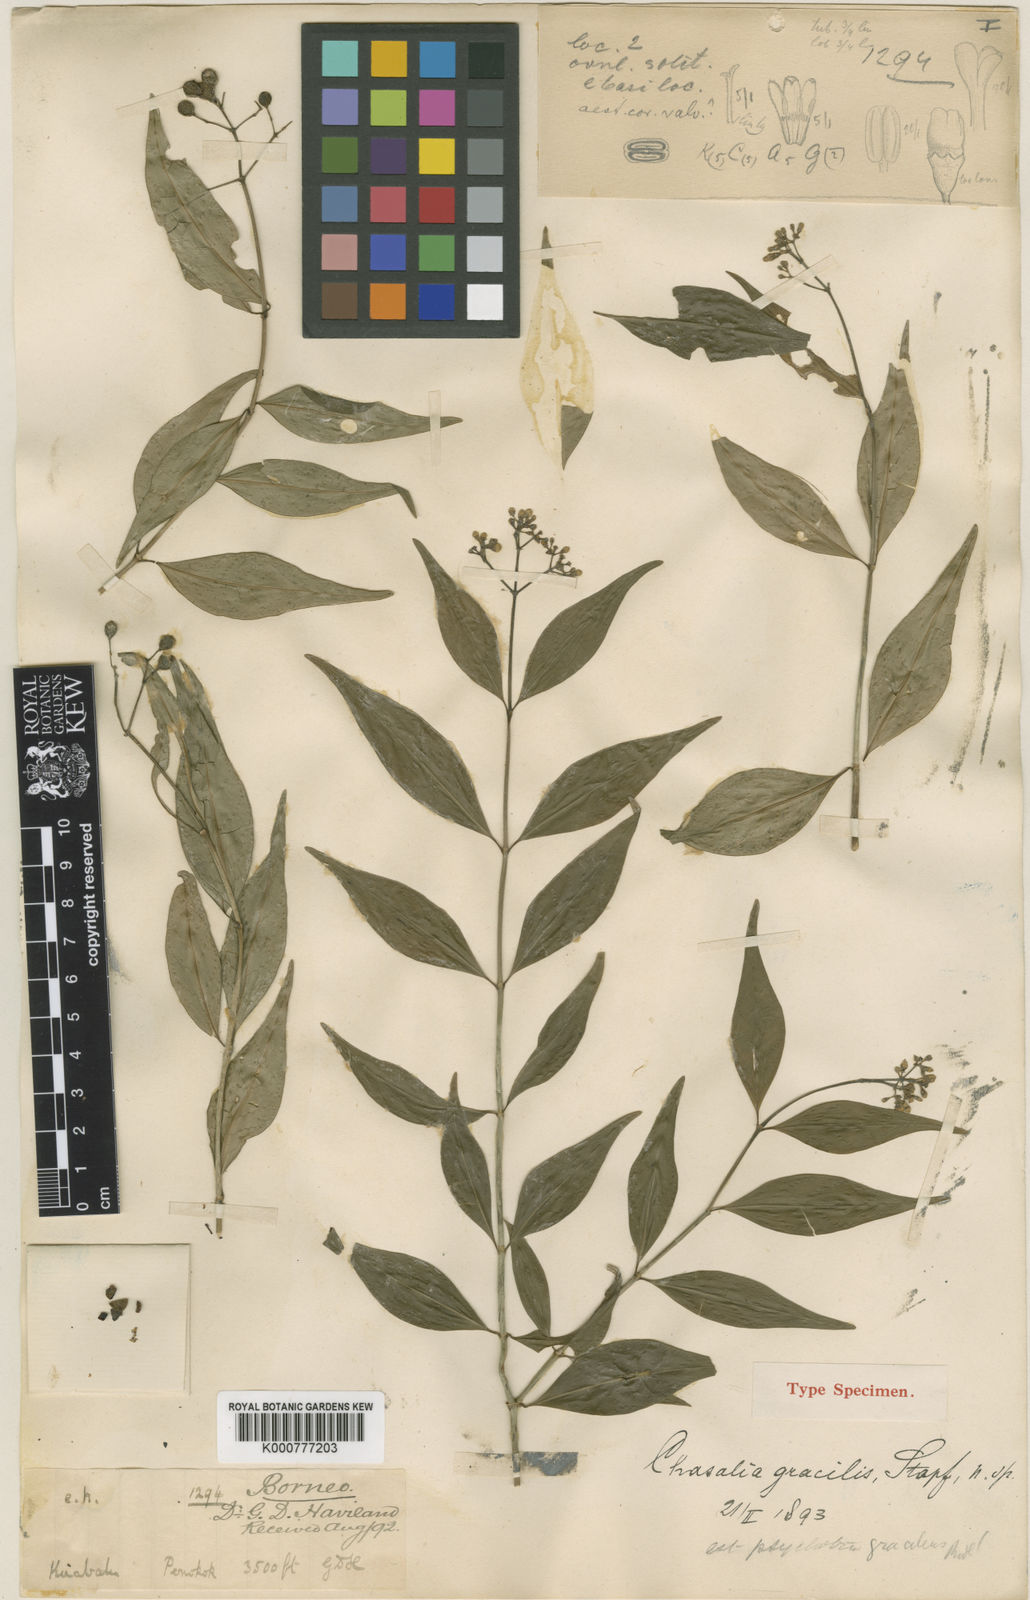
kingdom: Plantae
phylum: Tracheophyta
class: Magnoliopsida
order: Gentianales
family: Rubiaceae
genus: Psychotria
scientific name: Psychotria asae
